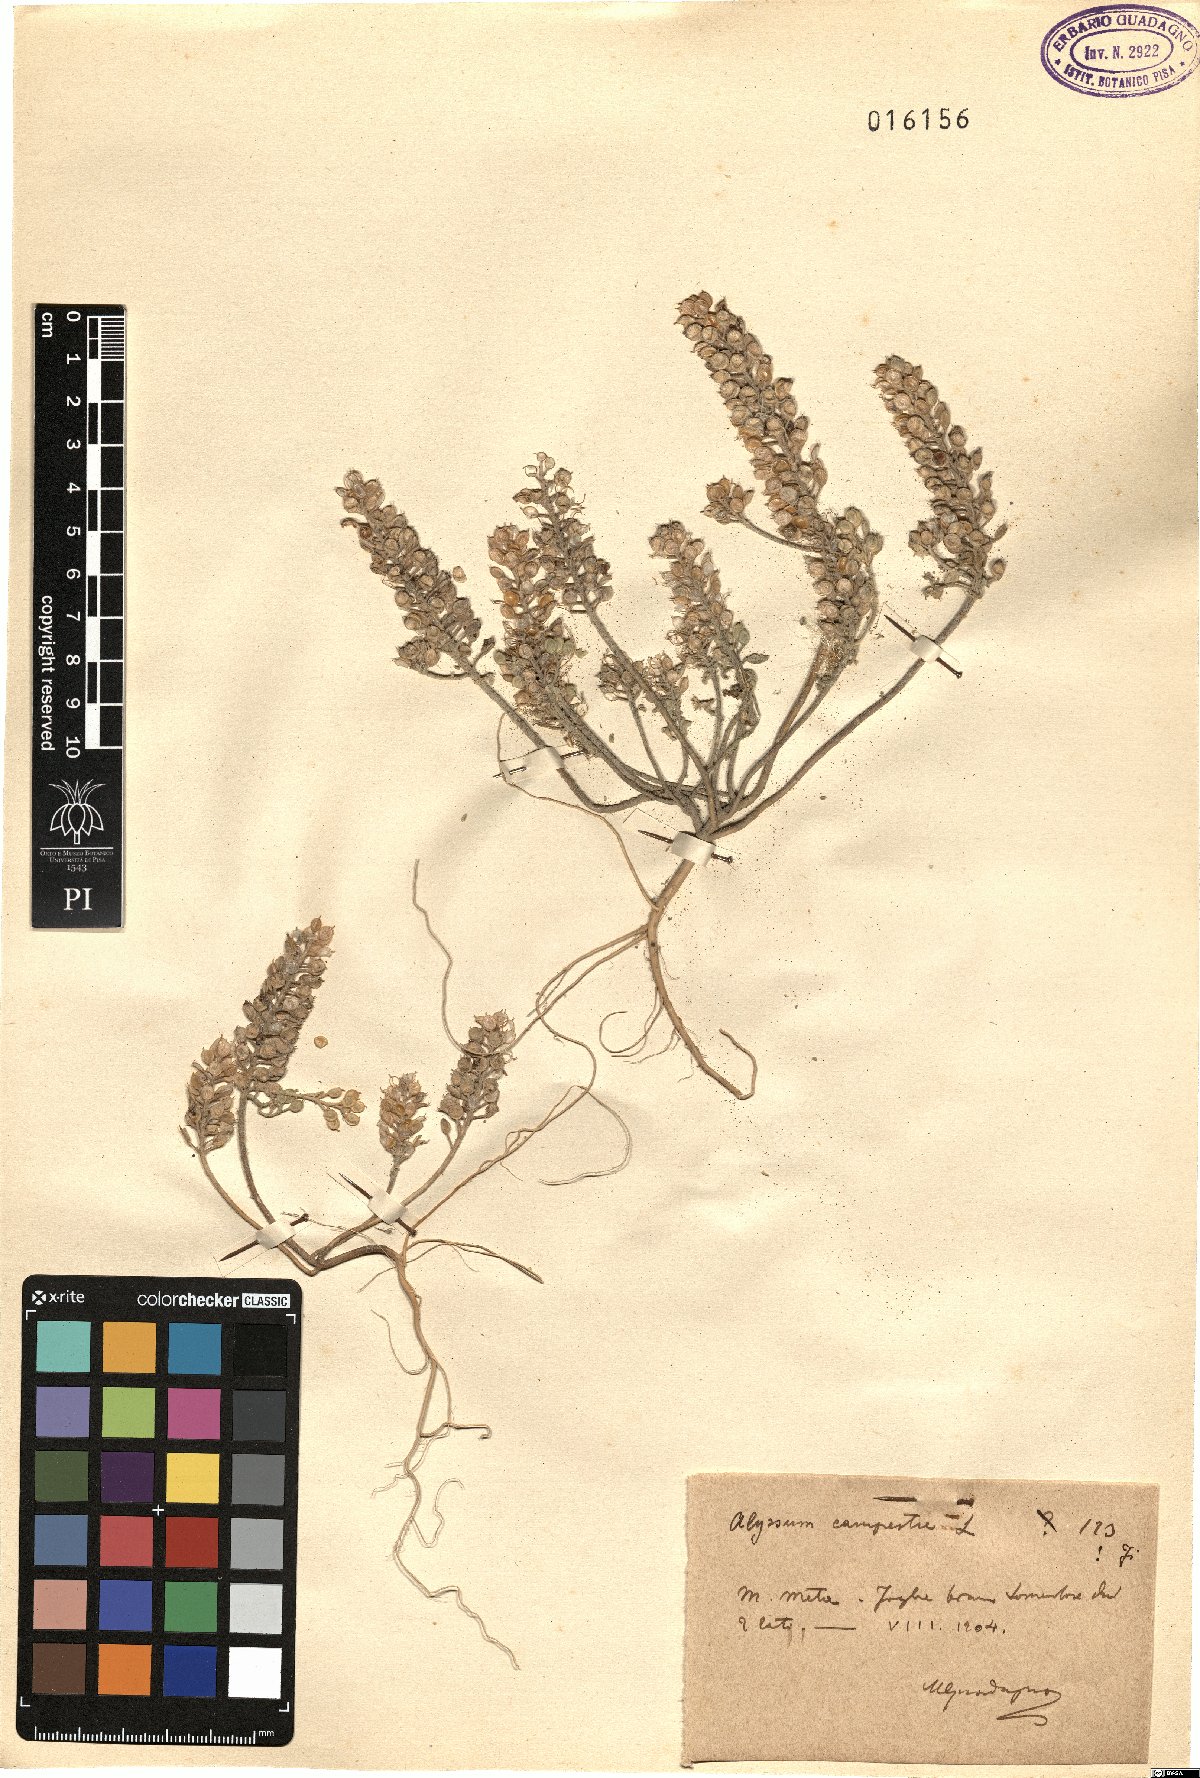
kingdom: Plantae
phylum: Tracheophyta
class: Magnoliopsida
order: Brassicales
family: Brassicaceae
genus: Alyssum
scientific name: Alyssum alyssoides
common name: Small alison
